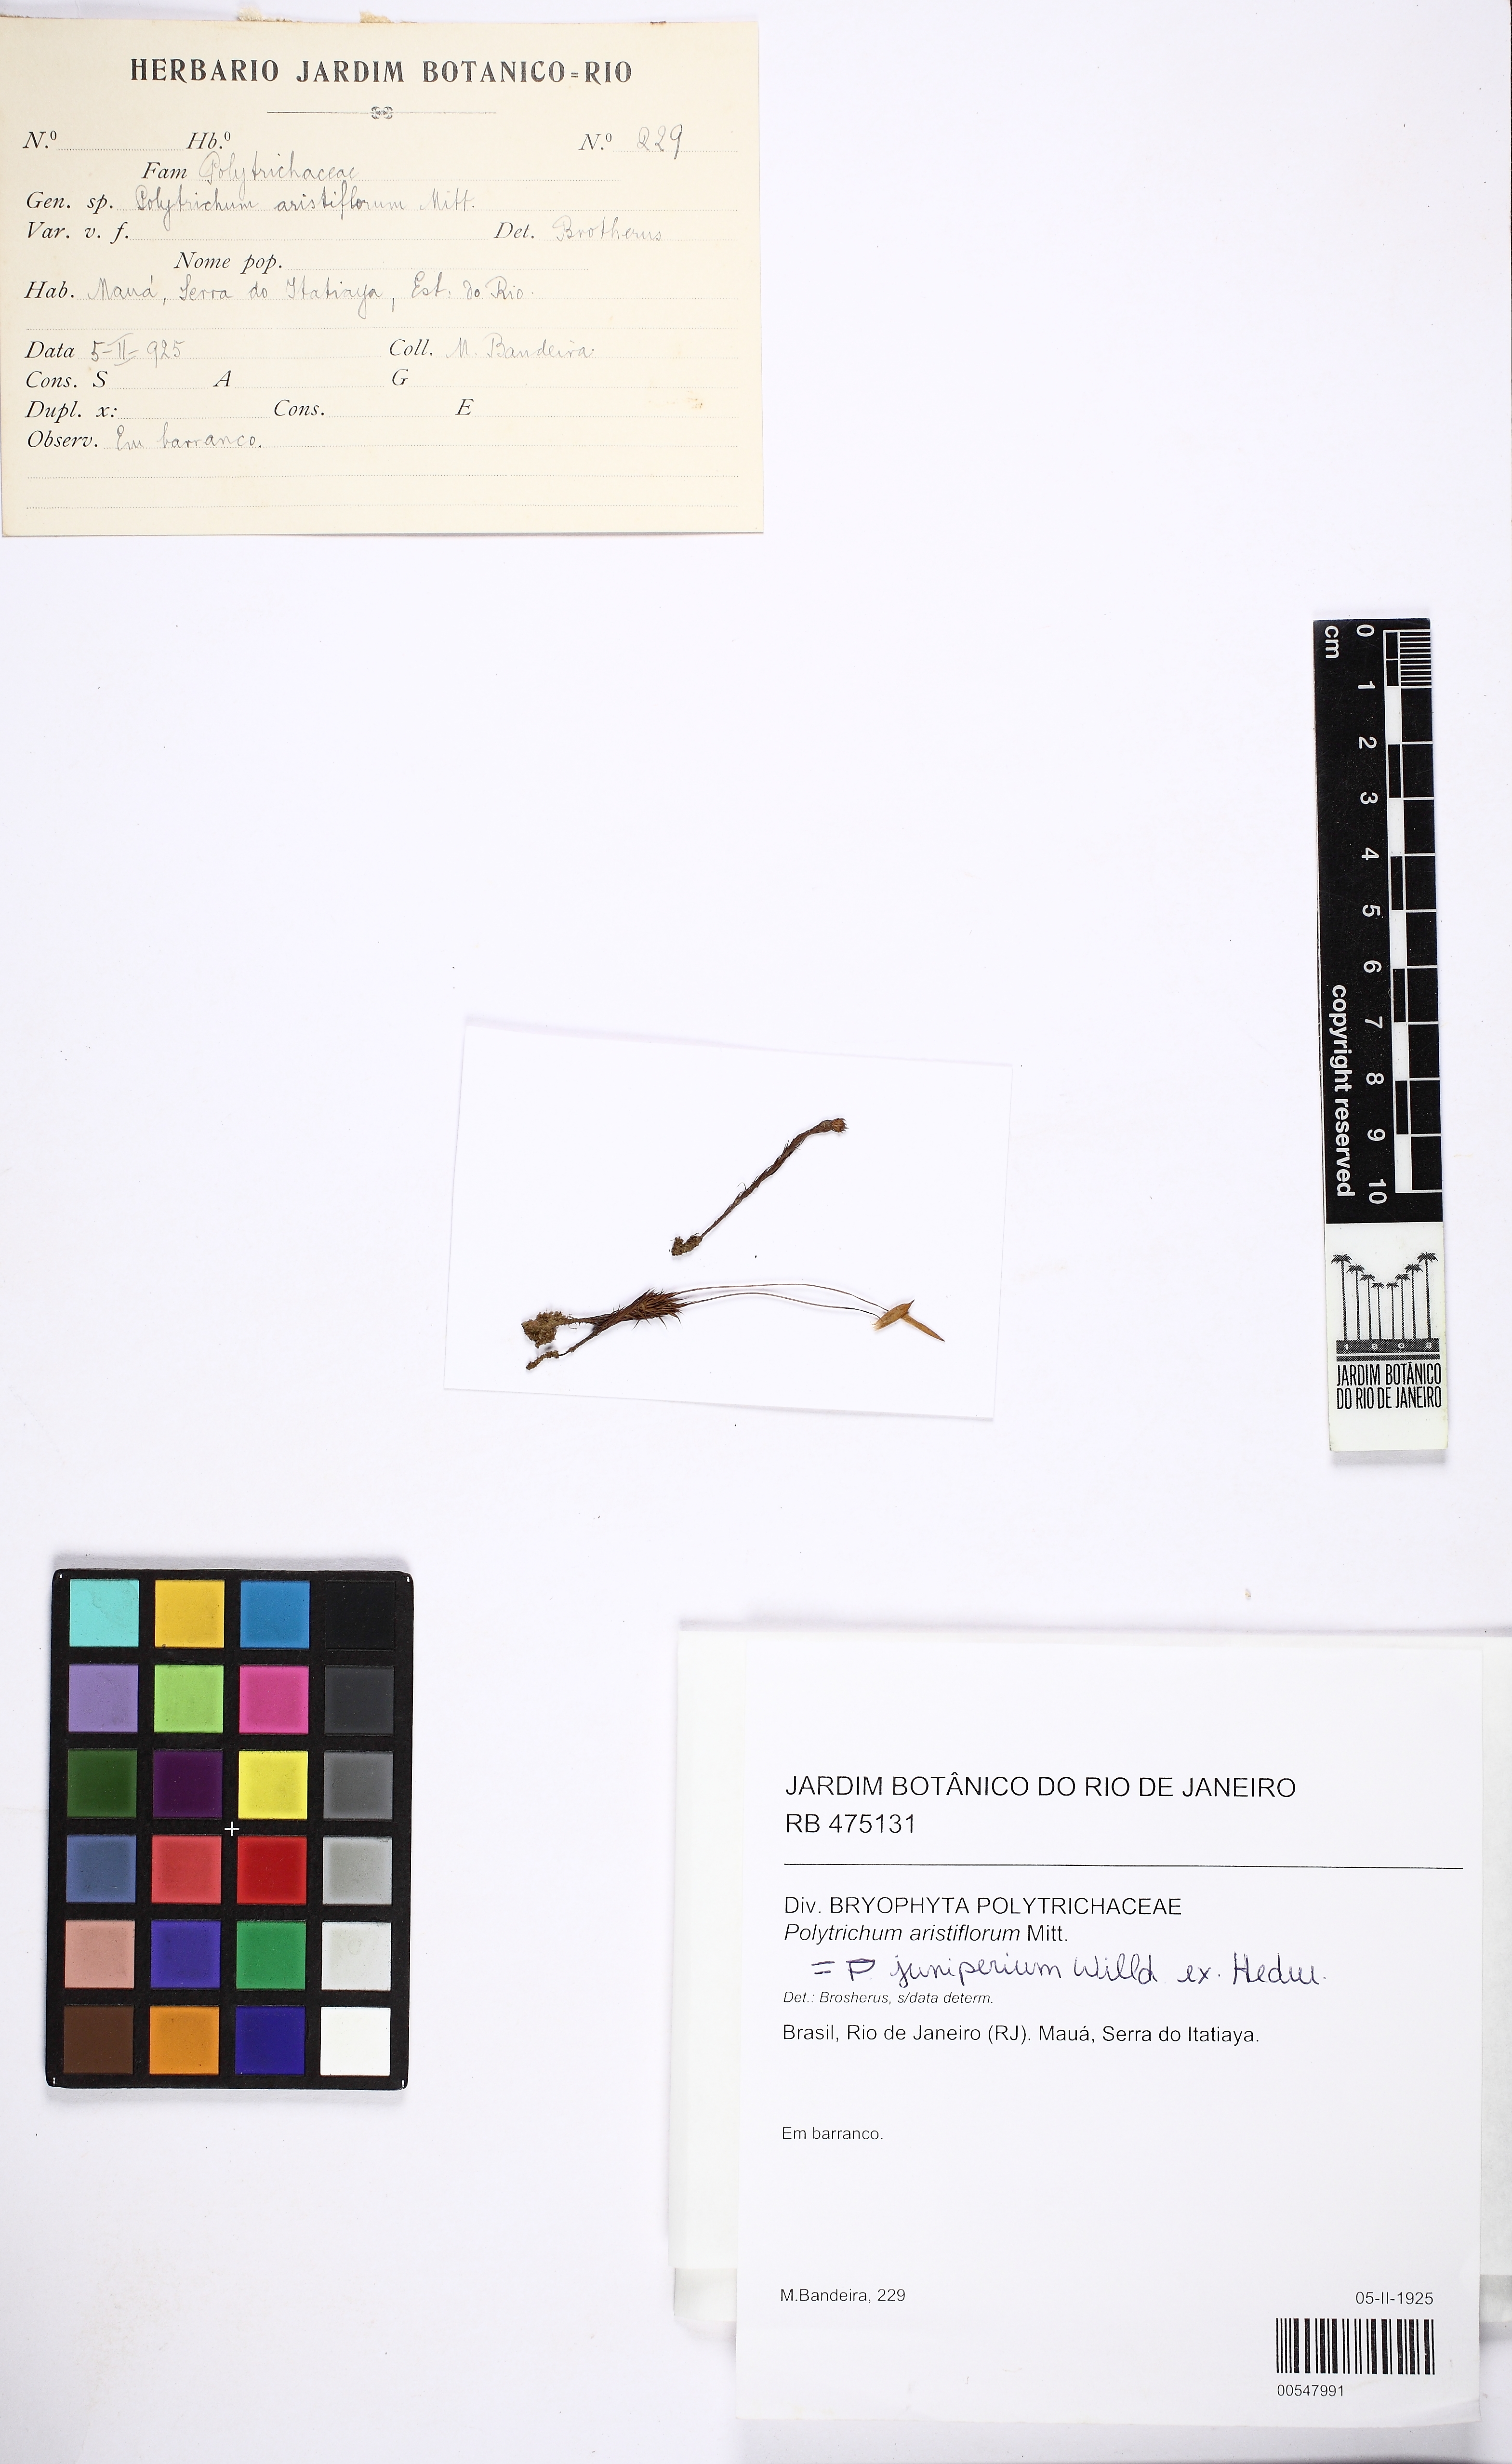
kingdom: Plantae
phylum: Bryophyta
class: Polytrichopsida
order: Polytrichales
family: Polytrichaceae
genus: Polytrichum
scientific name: Polytrichum juniperinum
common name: Juniper haircap moss
